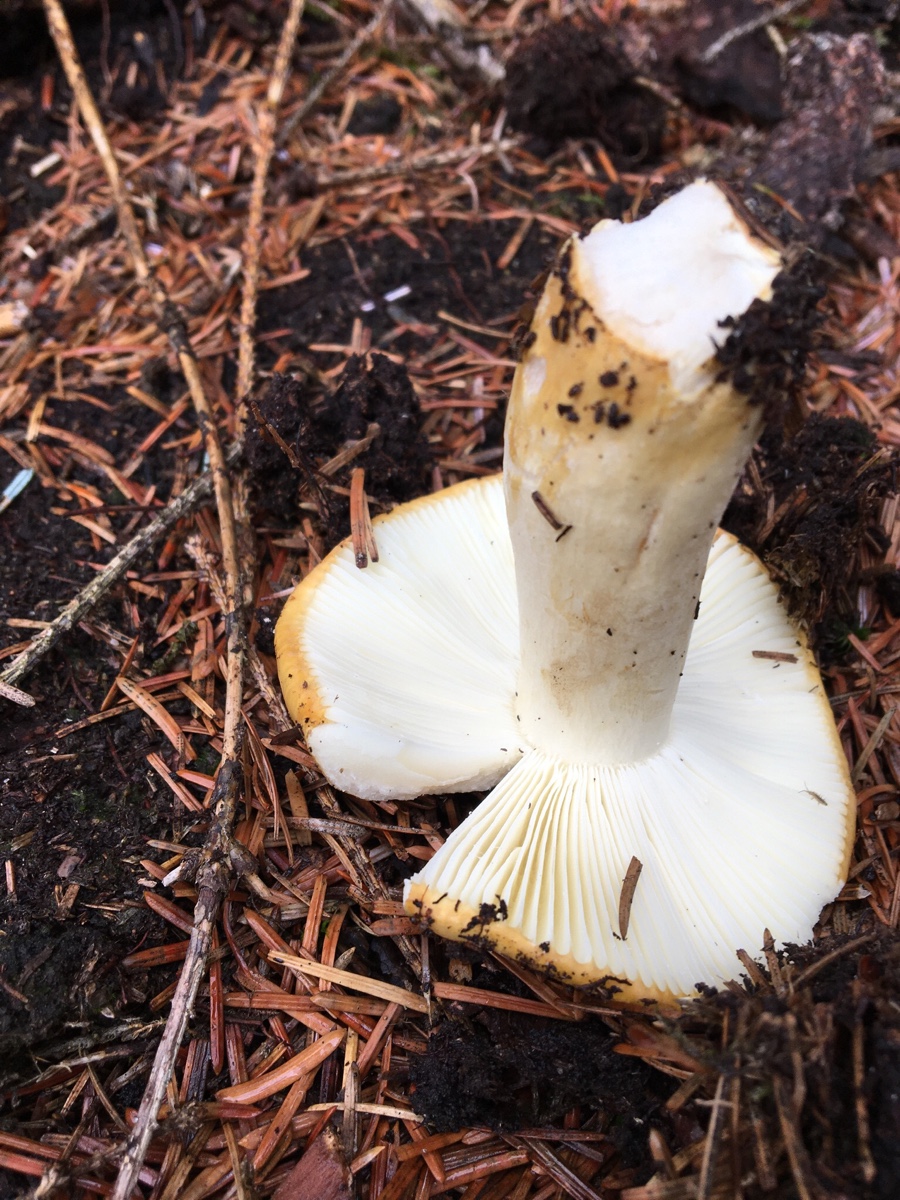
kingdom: Fungi
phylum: Basidiomycota
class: Agaricomycetes
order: Russulales
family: Russulaceae
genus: Russula
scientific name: Russula ochroleuca
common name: okkergul skørhat
